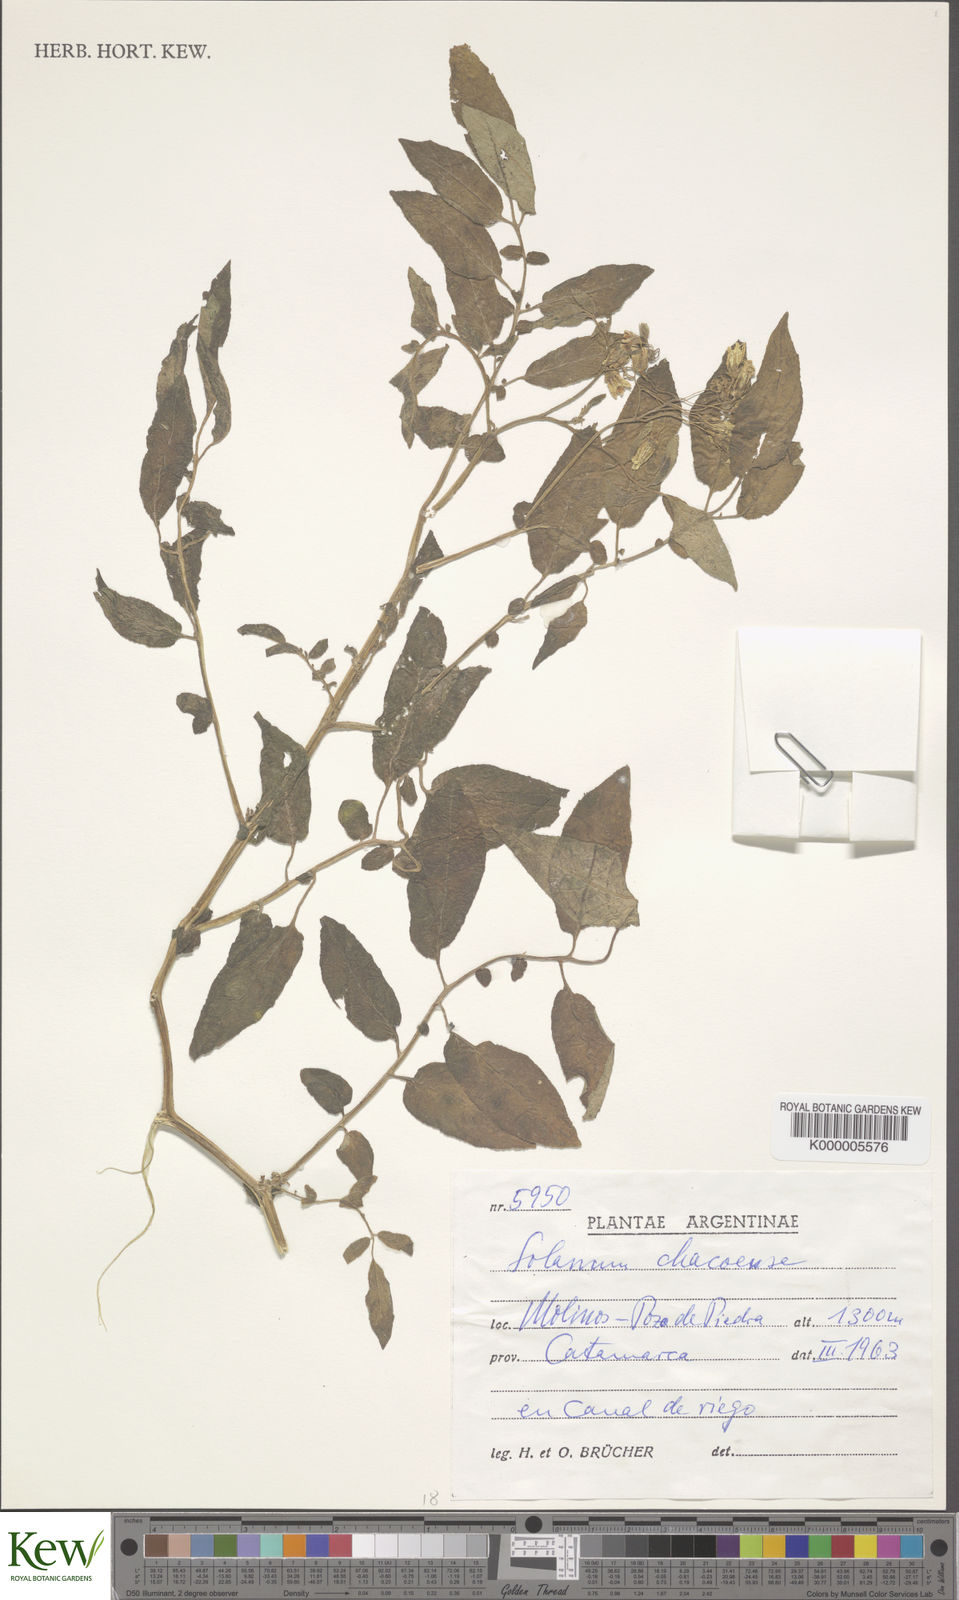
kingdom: Plantae
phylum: Tracheophyta
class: Magnoliopsida
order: Solanales
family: Solanaceae
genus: Solanum
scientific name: Solanum chacoense
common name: Chaco potato
